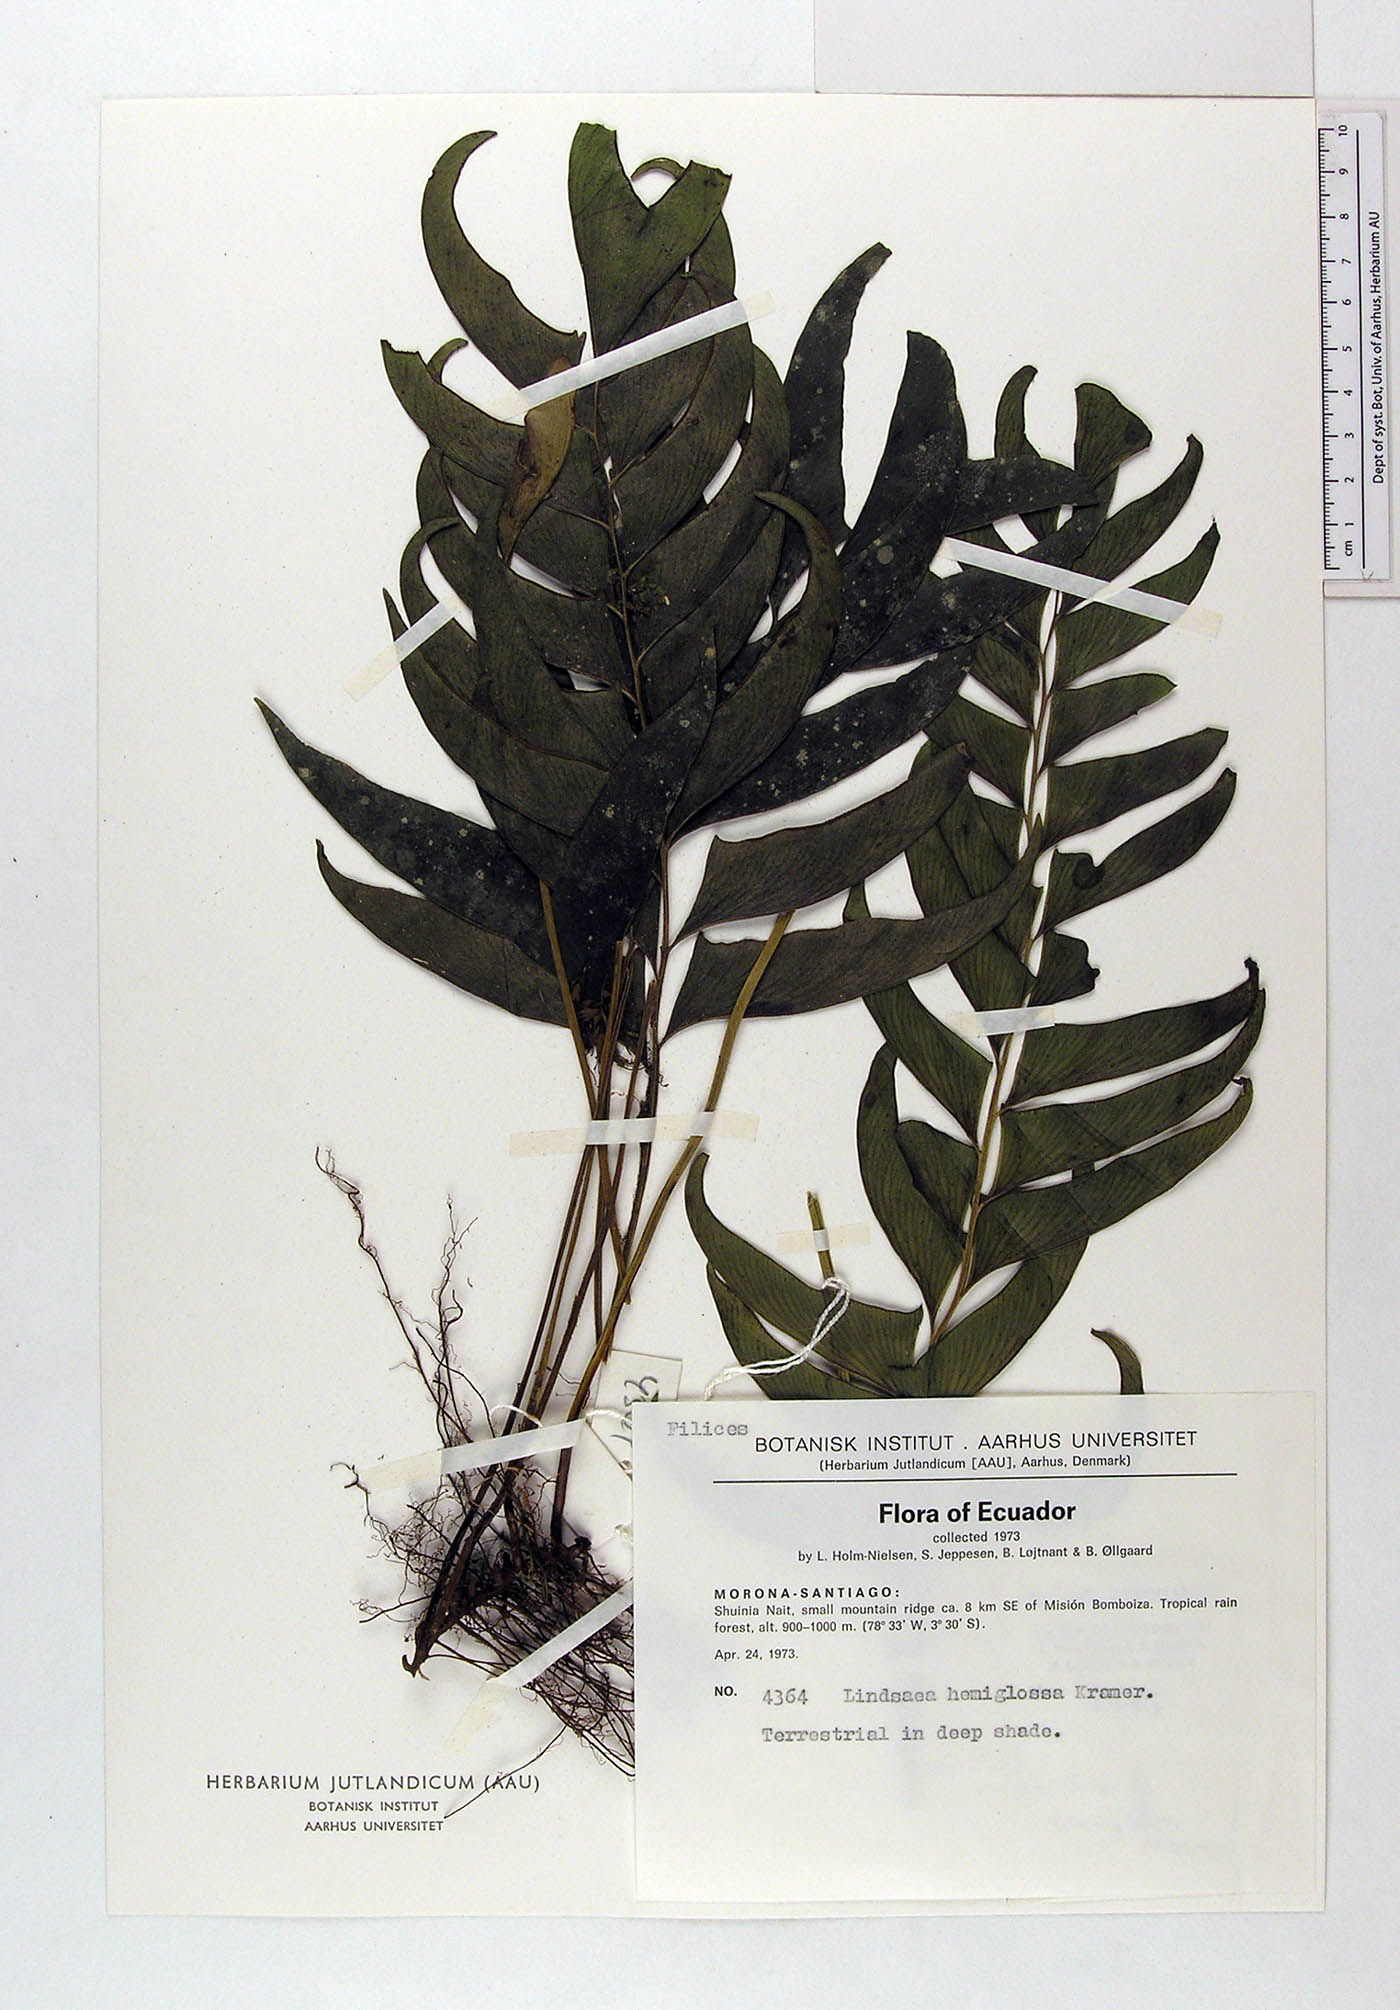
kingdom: Plantae
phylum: Tracheophyta
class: Polypodiopsida
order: Polypodiales
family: Lindsaeaceae
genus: Lindsaea
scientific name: Lindsaea hemiglossa
